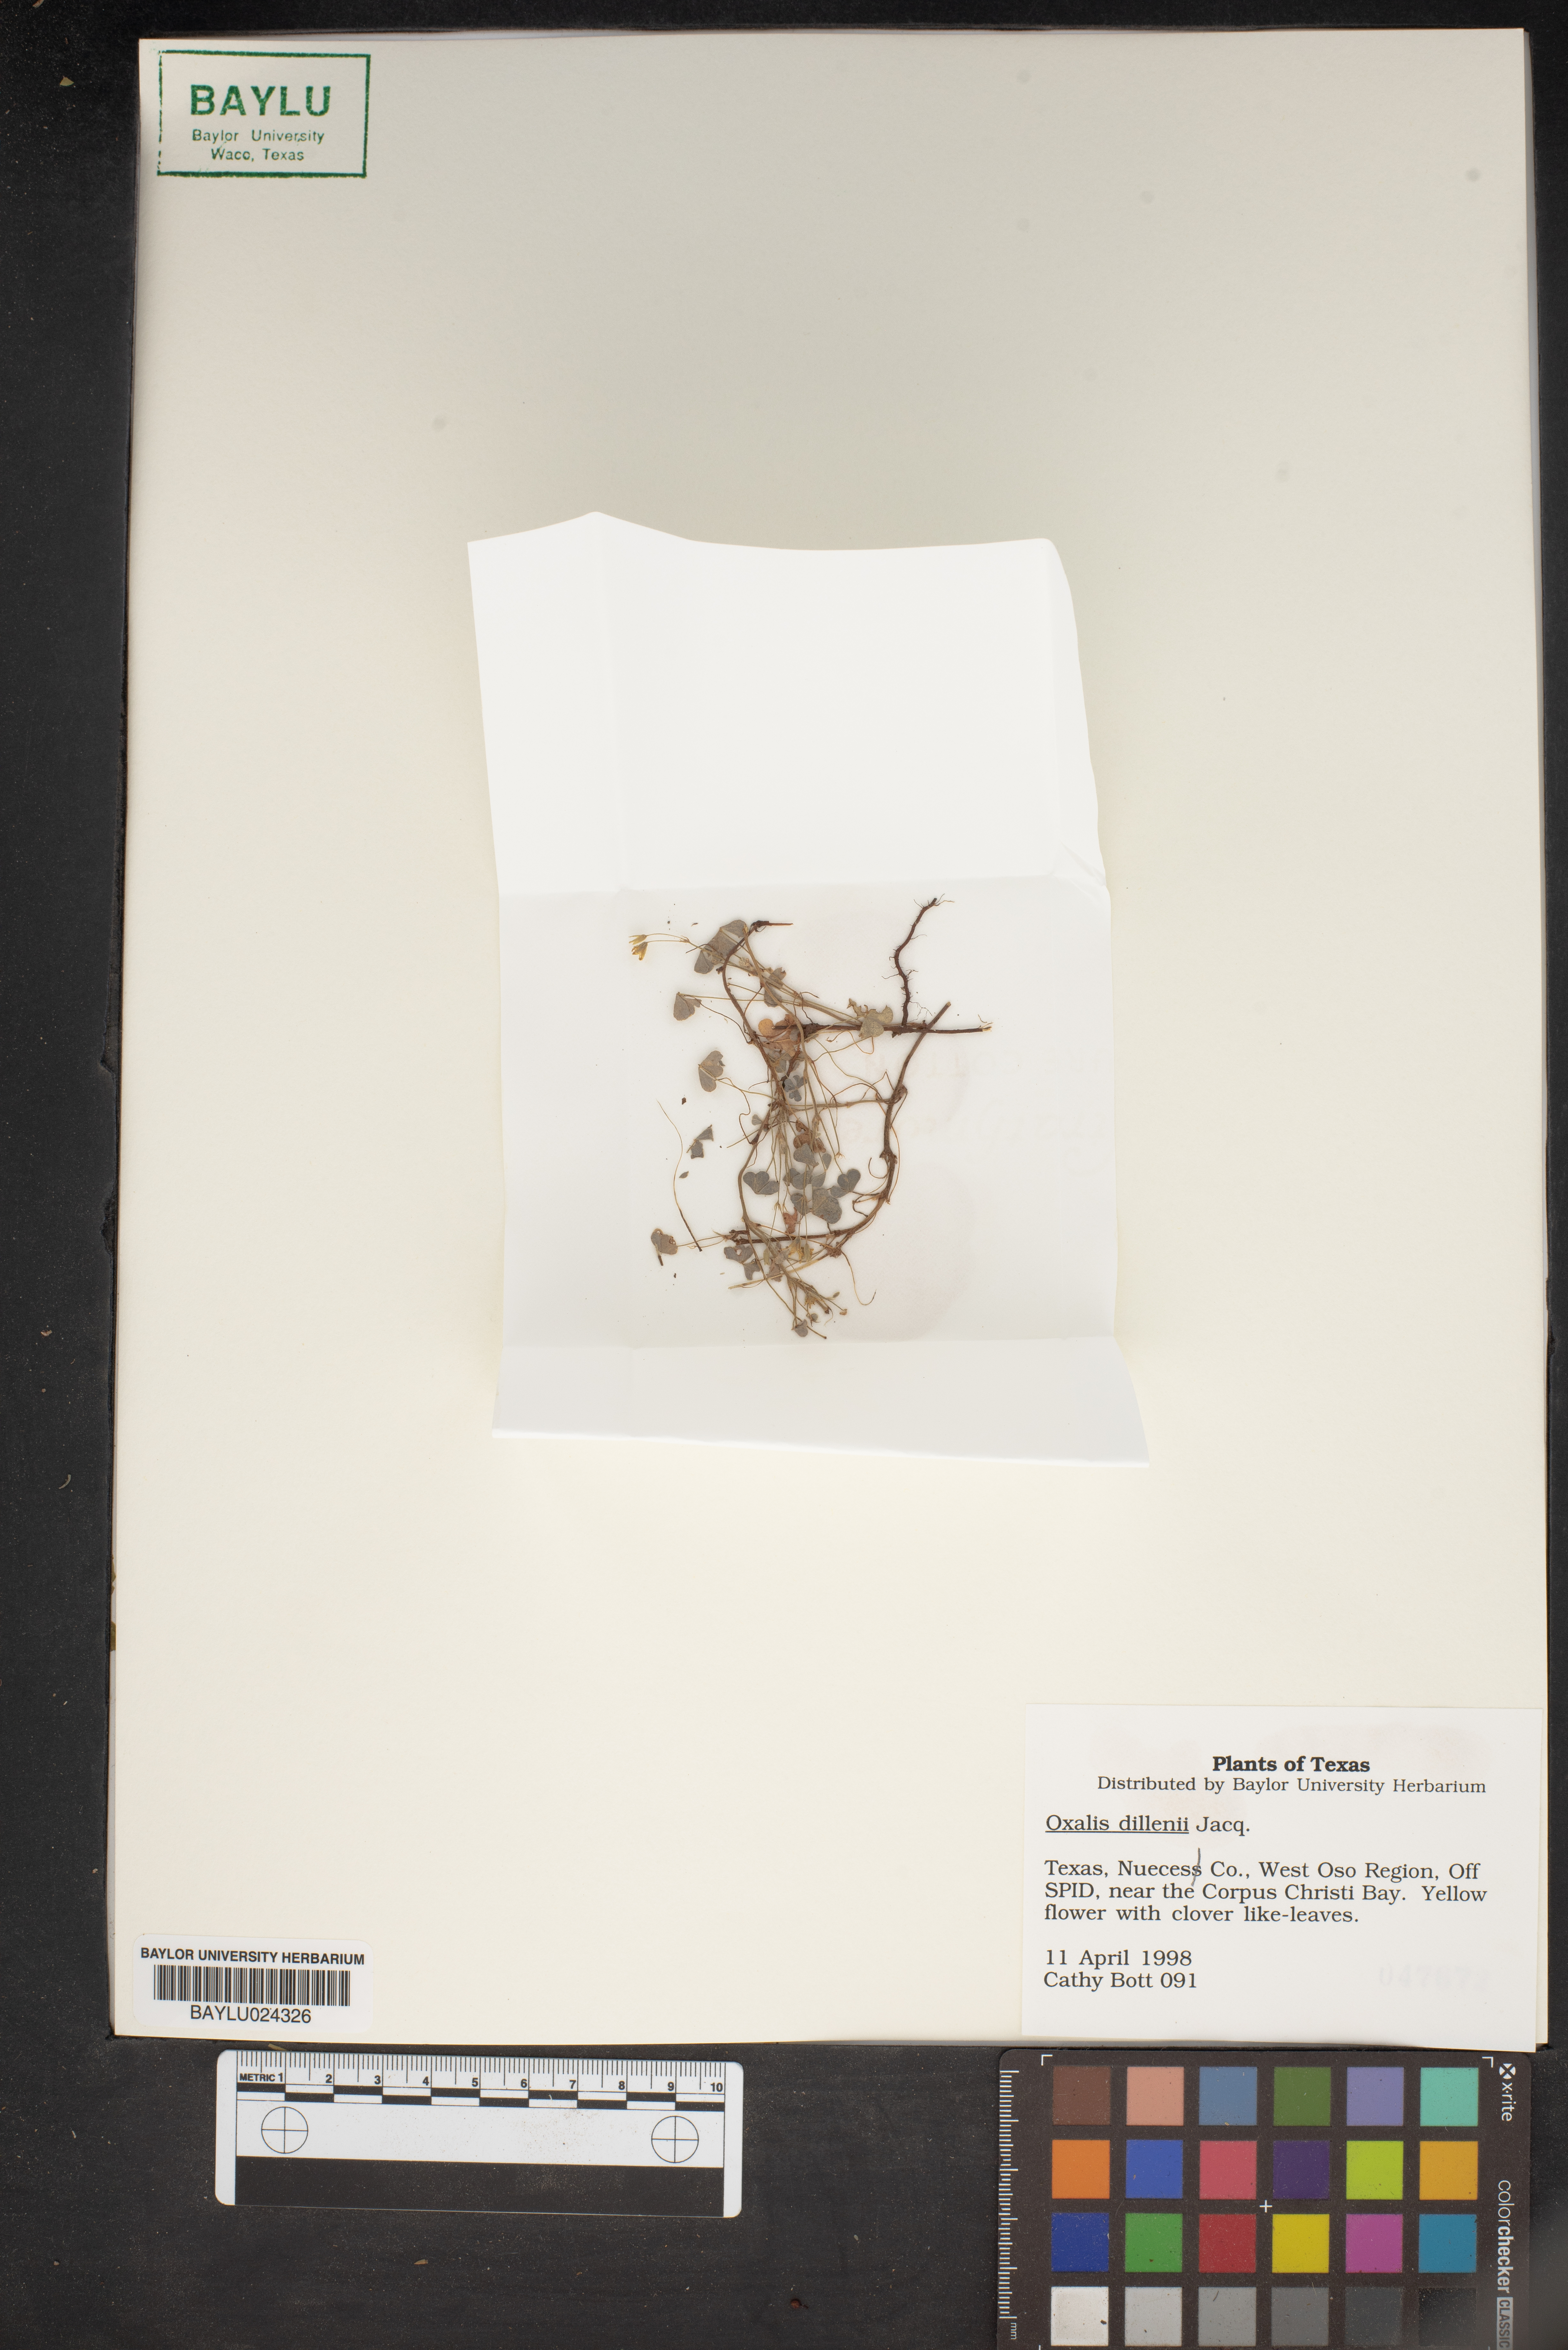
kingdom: Plantae
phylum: Tracheophyta
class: Magnoliopsida
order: Oxalidales
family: Oxalidaceae
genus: Oxalis
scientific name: Oxalis dillenii
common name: Sussex yellow-sorrel
